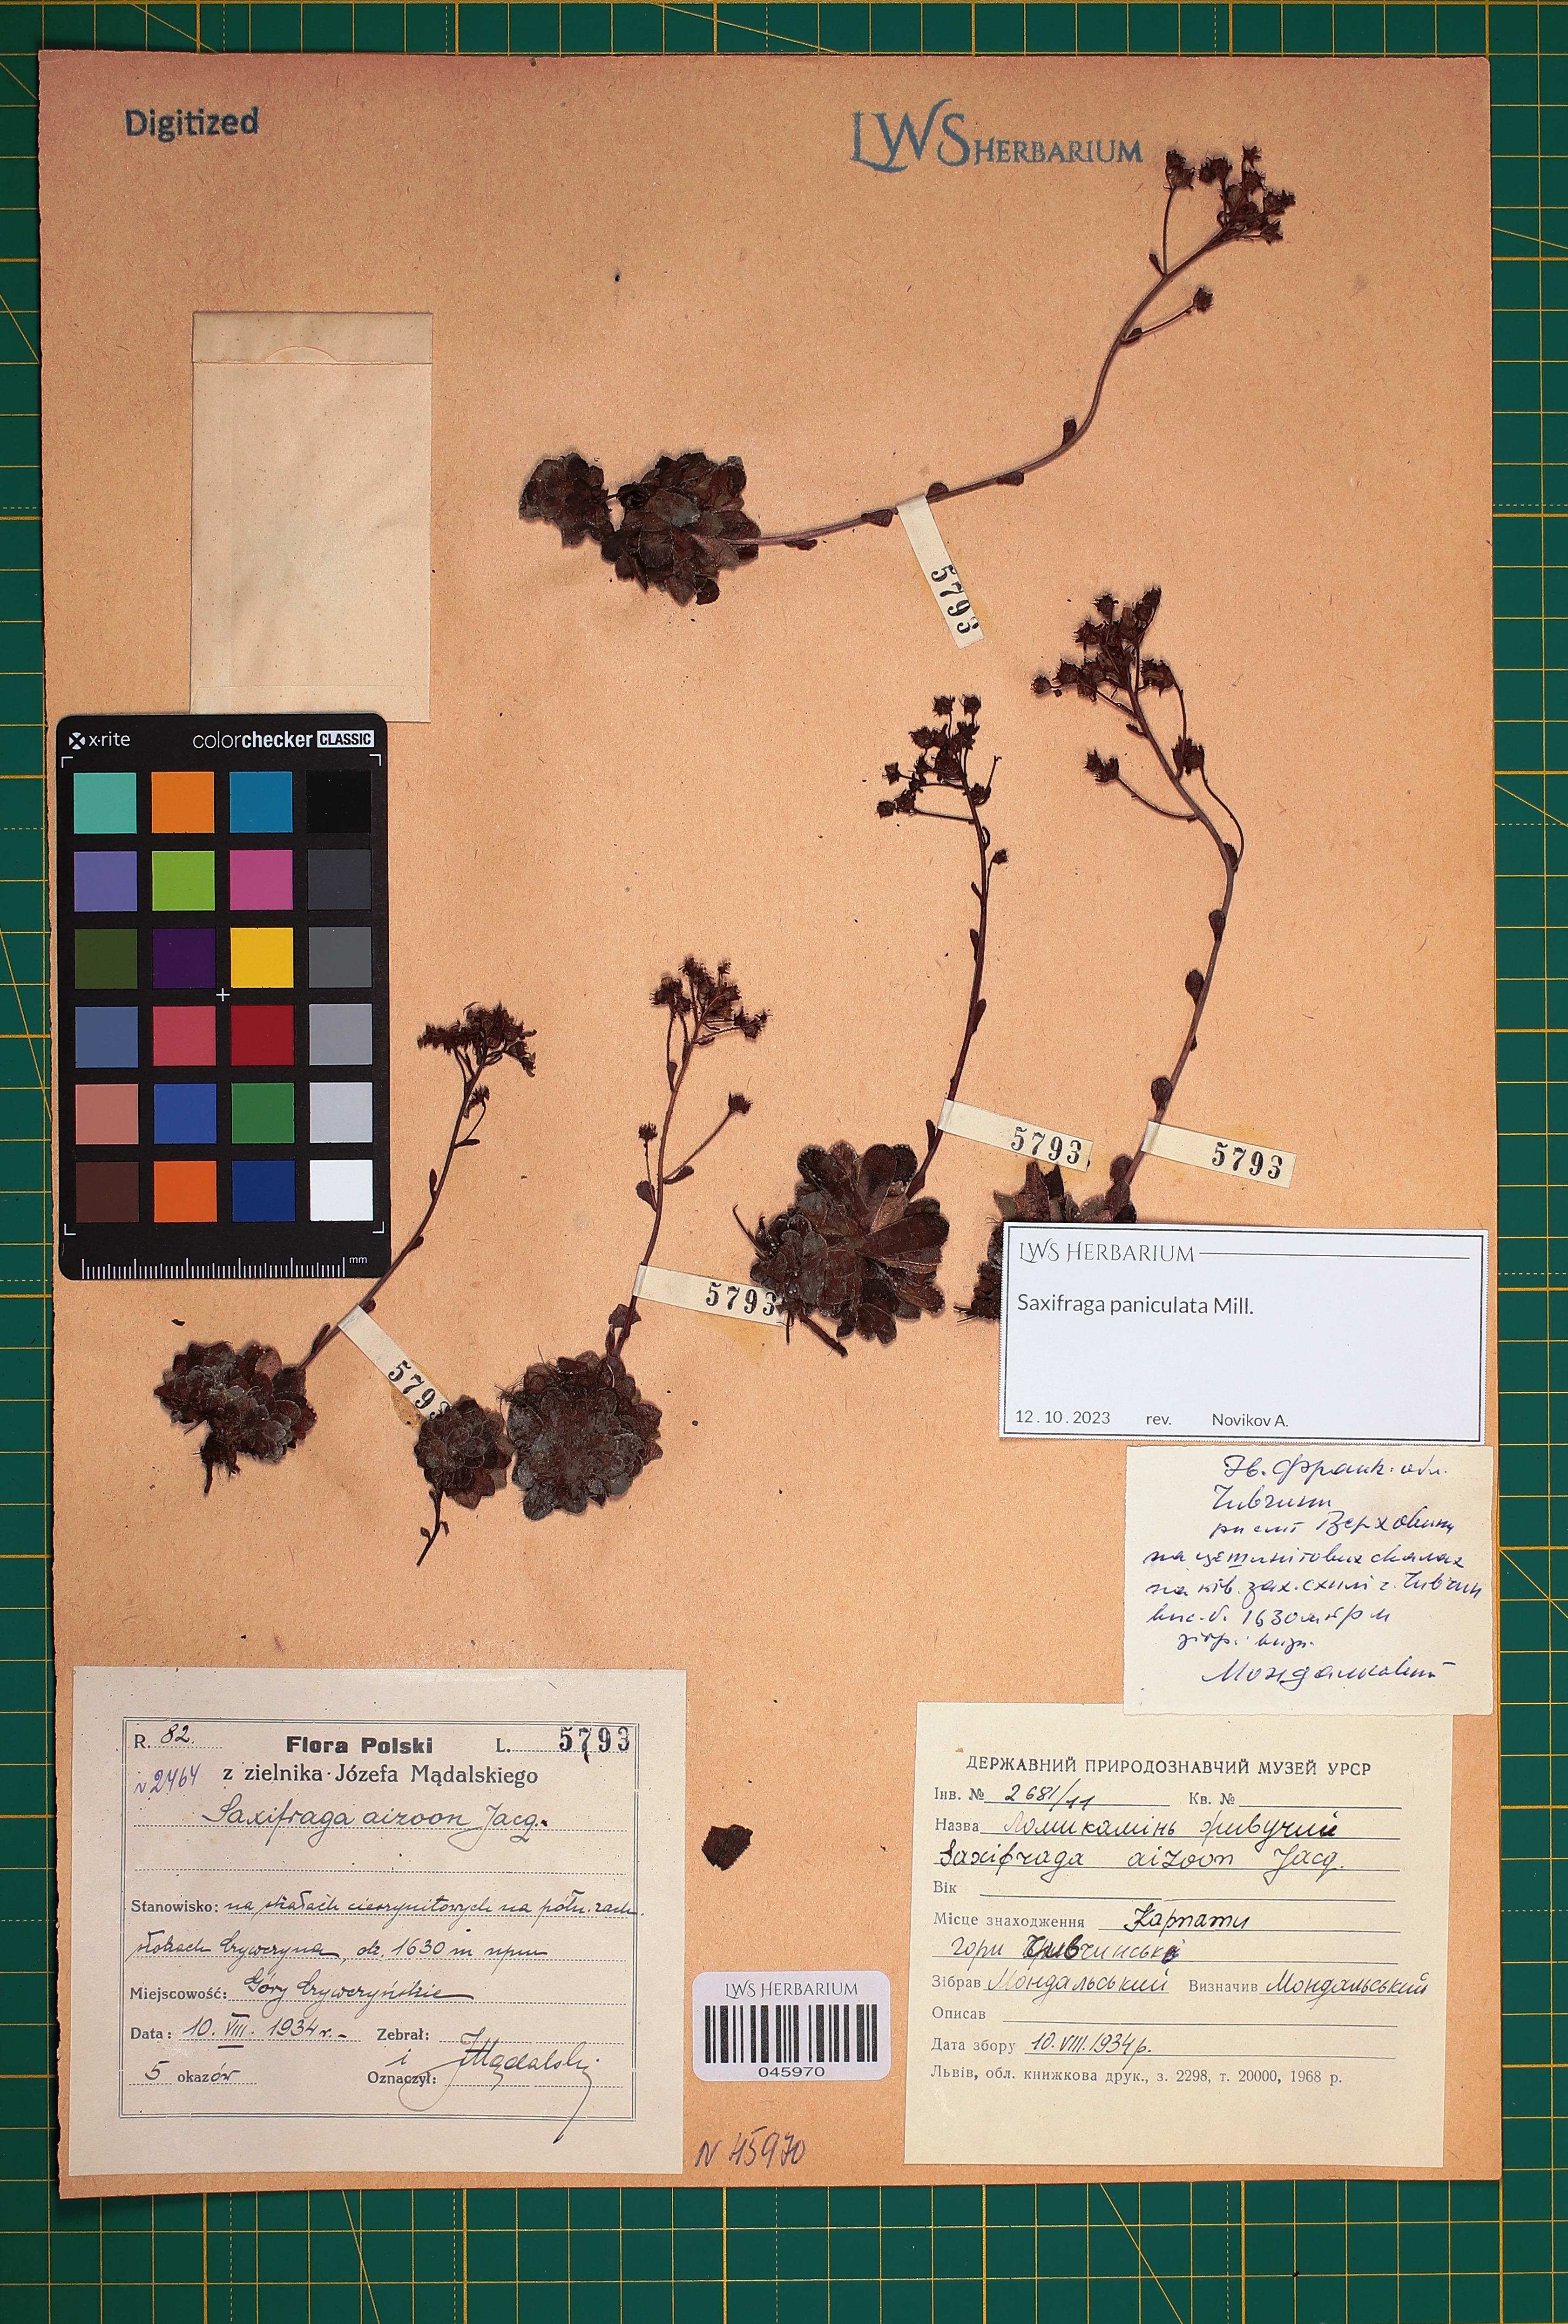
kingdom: Plantae
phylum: Tracheophyta
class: Magnoliopsida
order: Saxifragales
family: Saxifragaceae
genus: Saxifraga
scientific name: Saxifraga paniculata
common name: Livelong saxifrage
